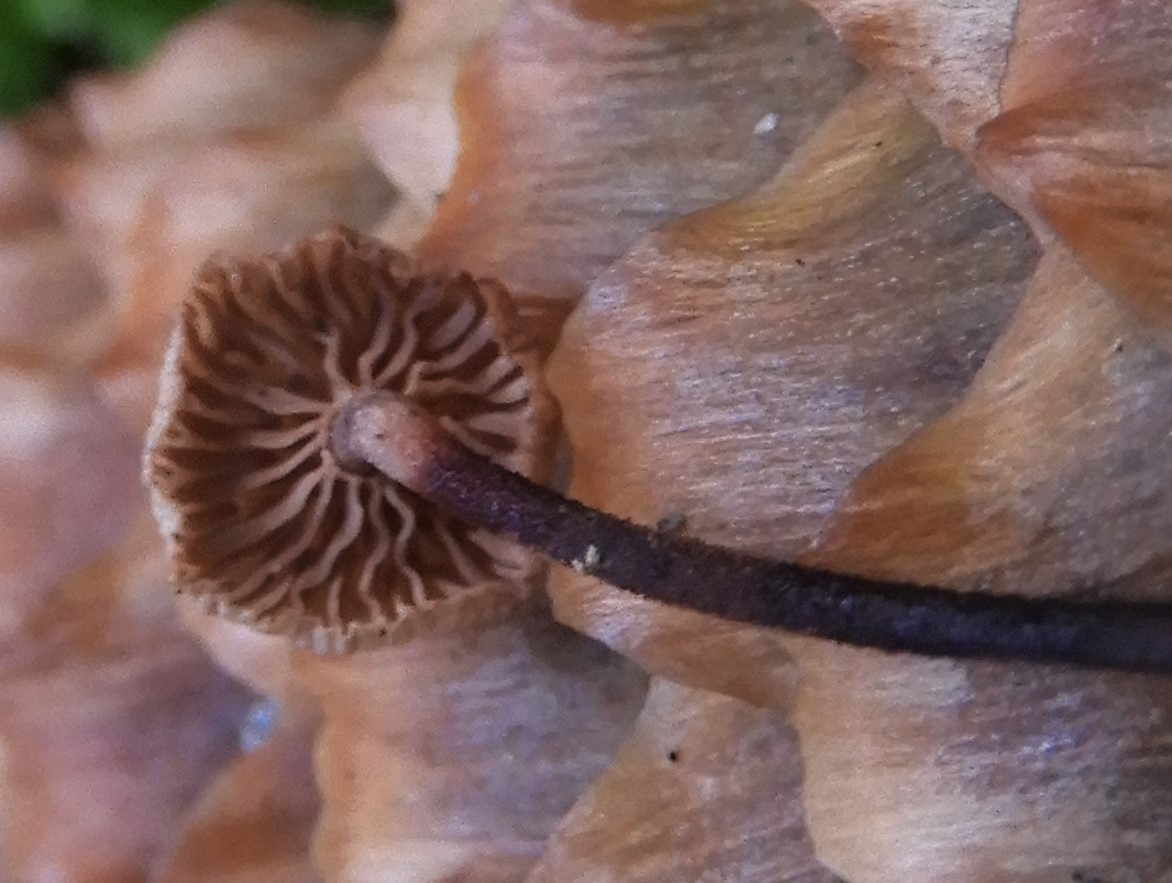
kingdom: Fungi
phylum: Basidiomycota
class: Agaricomycetes
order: Agaricales
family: Omphalotaceae
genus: Paragymnopus
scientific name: Paragymnopus perforans
